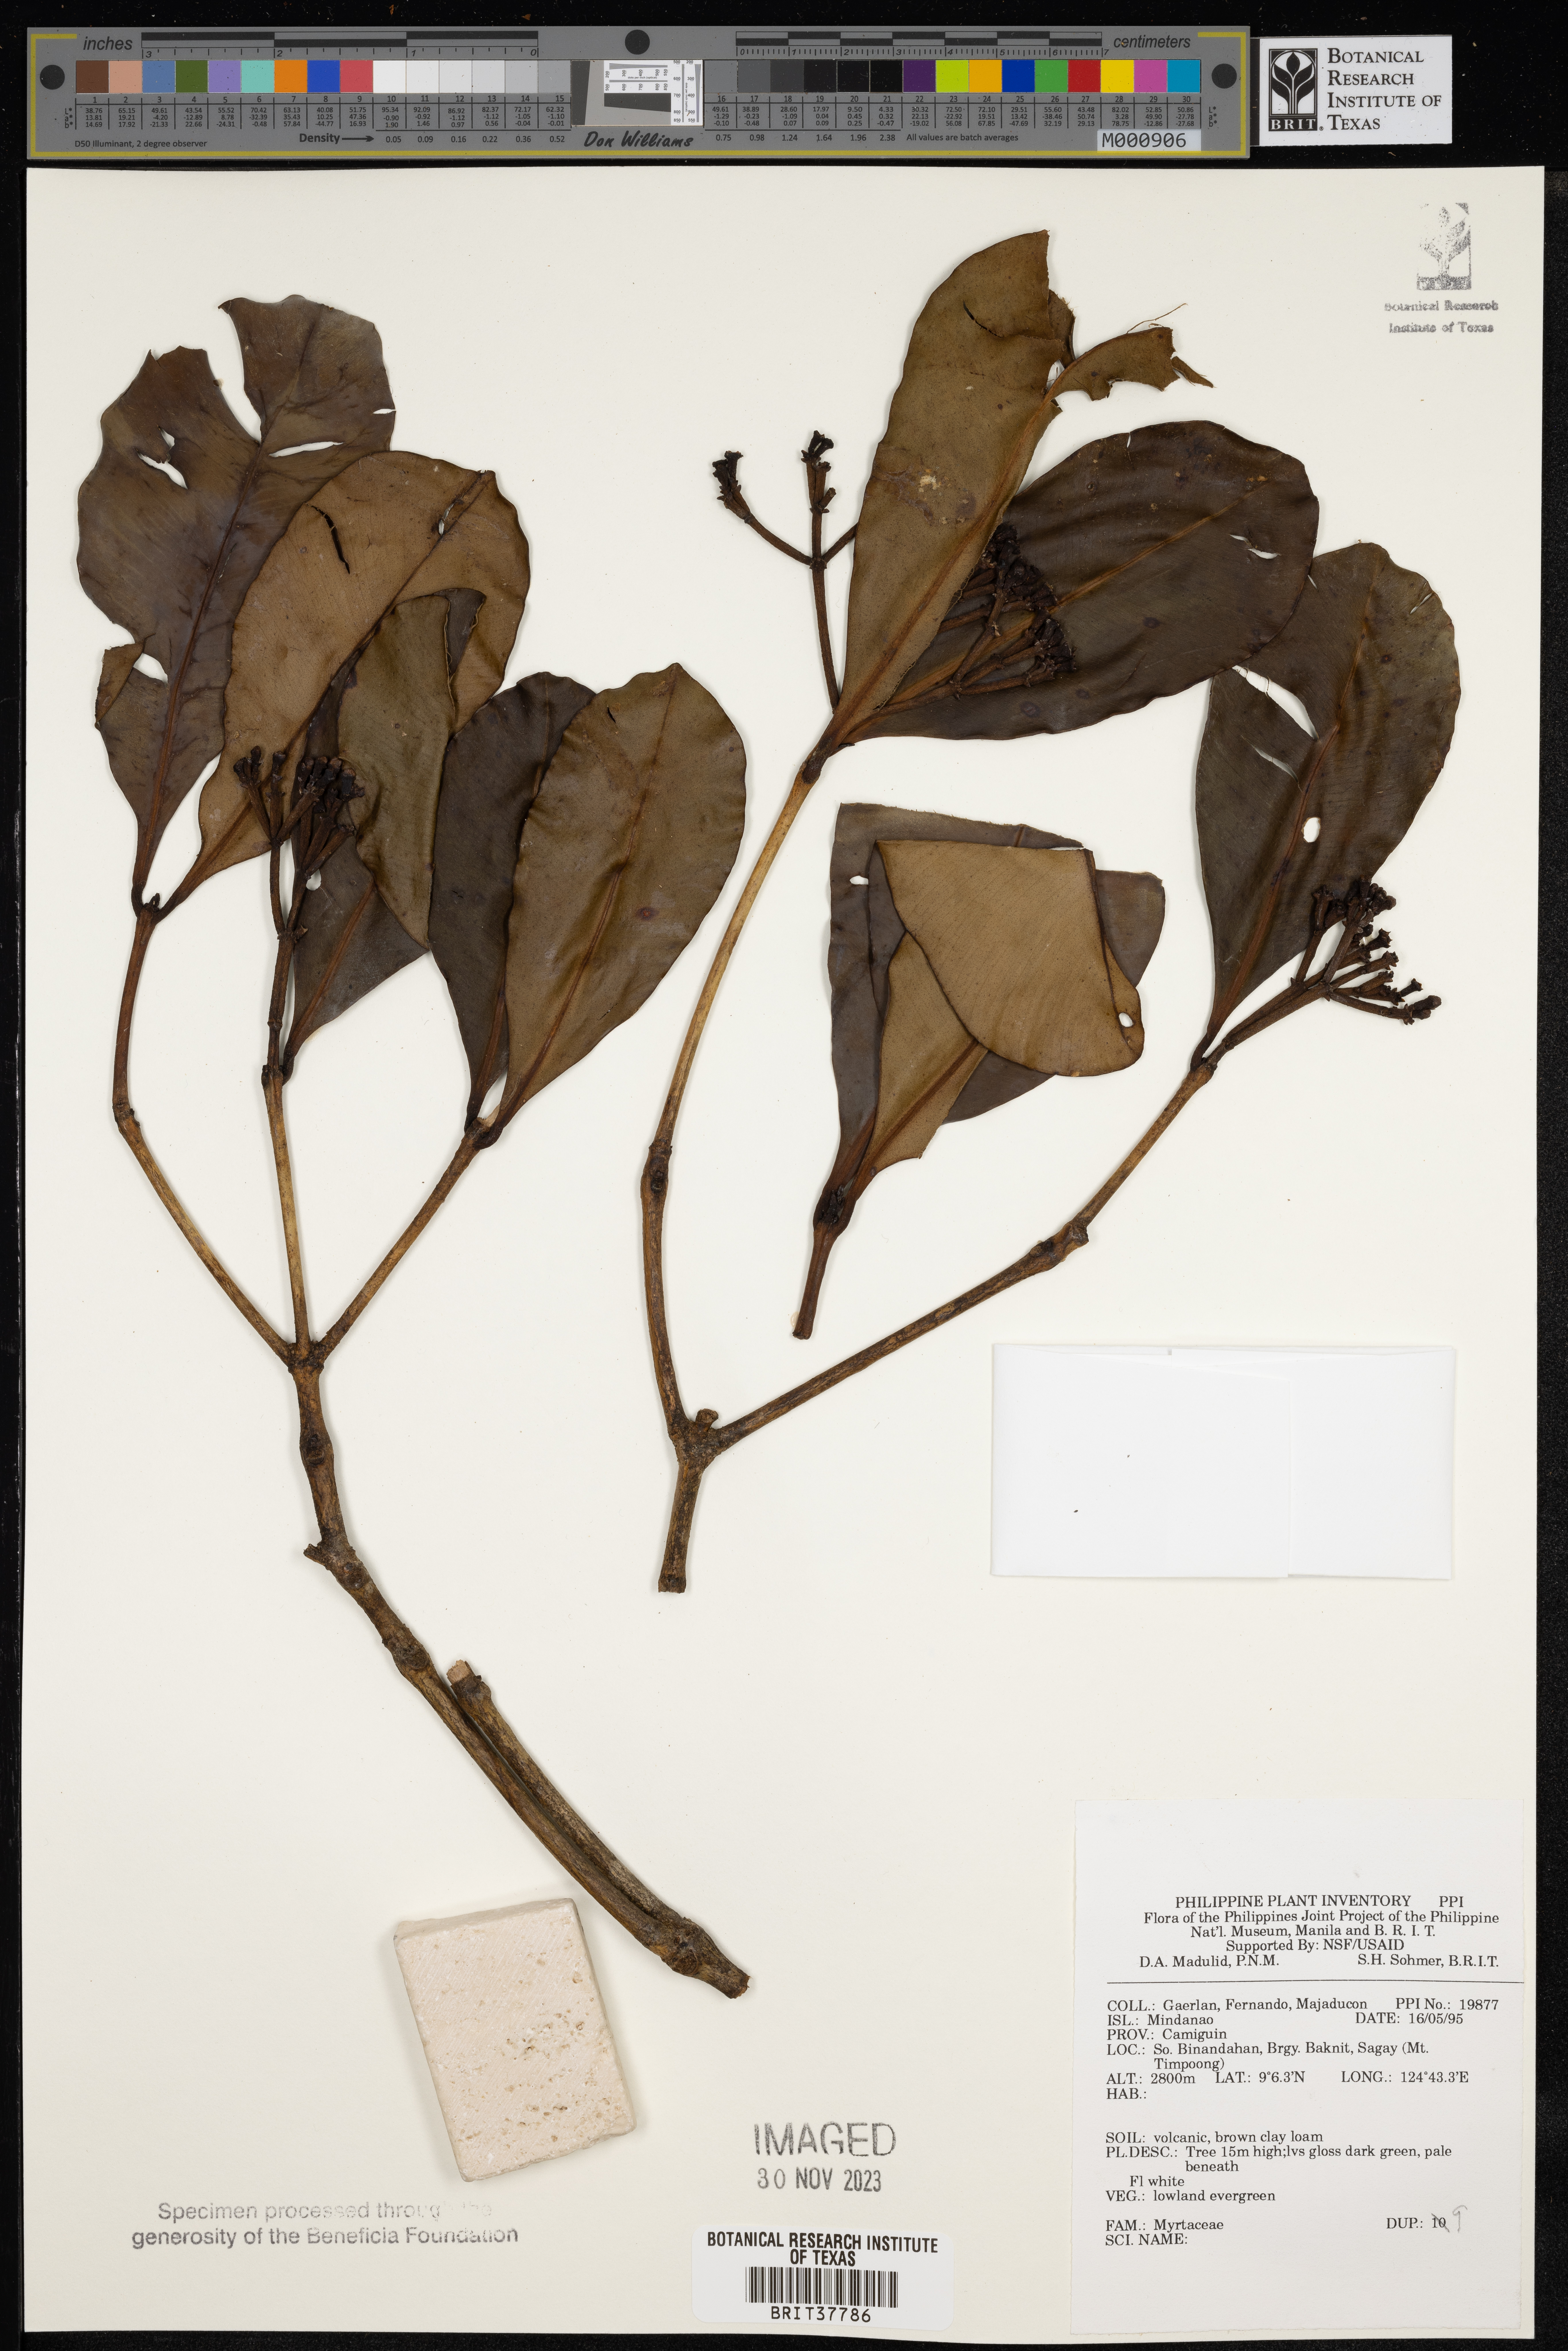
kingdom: Plantae
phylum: Tracheophyta
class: Magnoliopsida
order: Myrtales
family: Myrtaceae
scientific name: Myrtaceae
